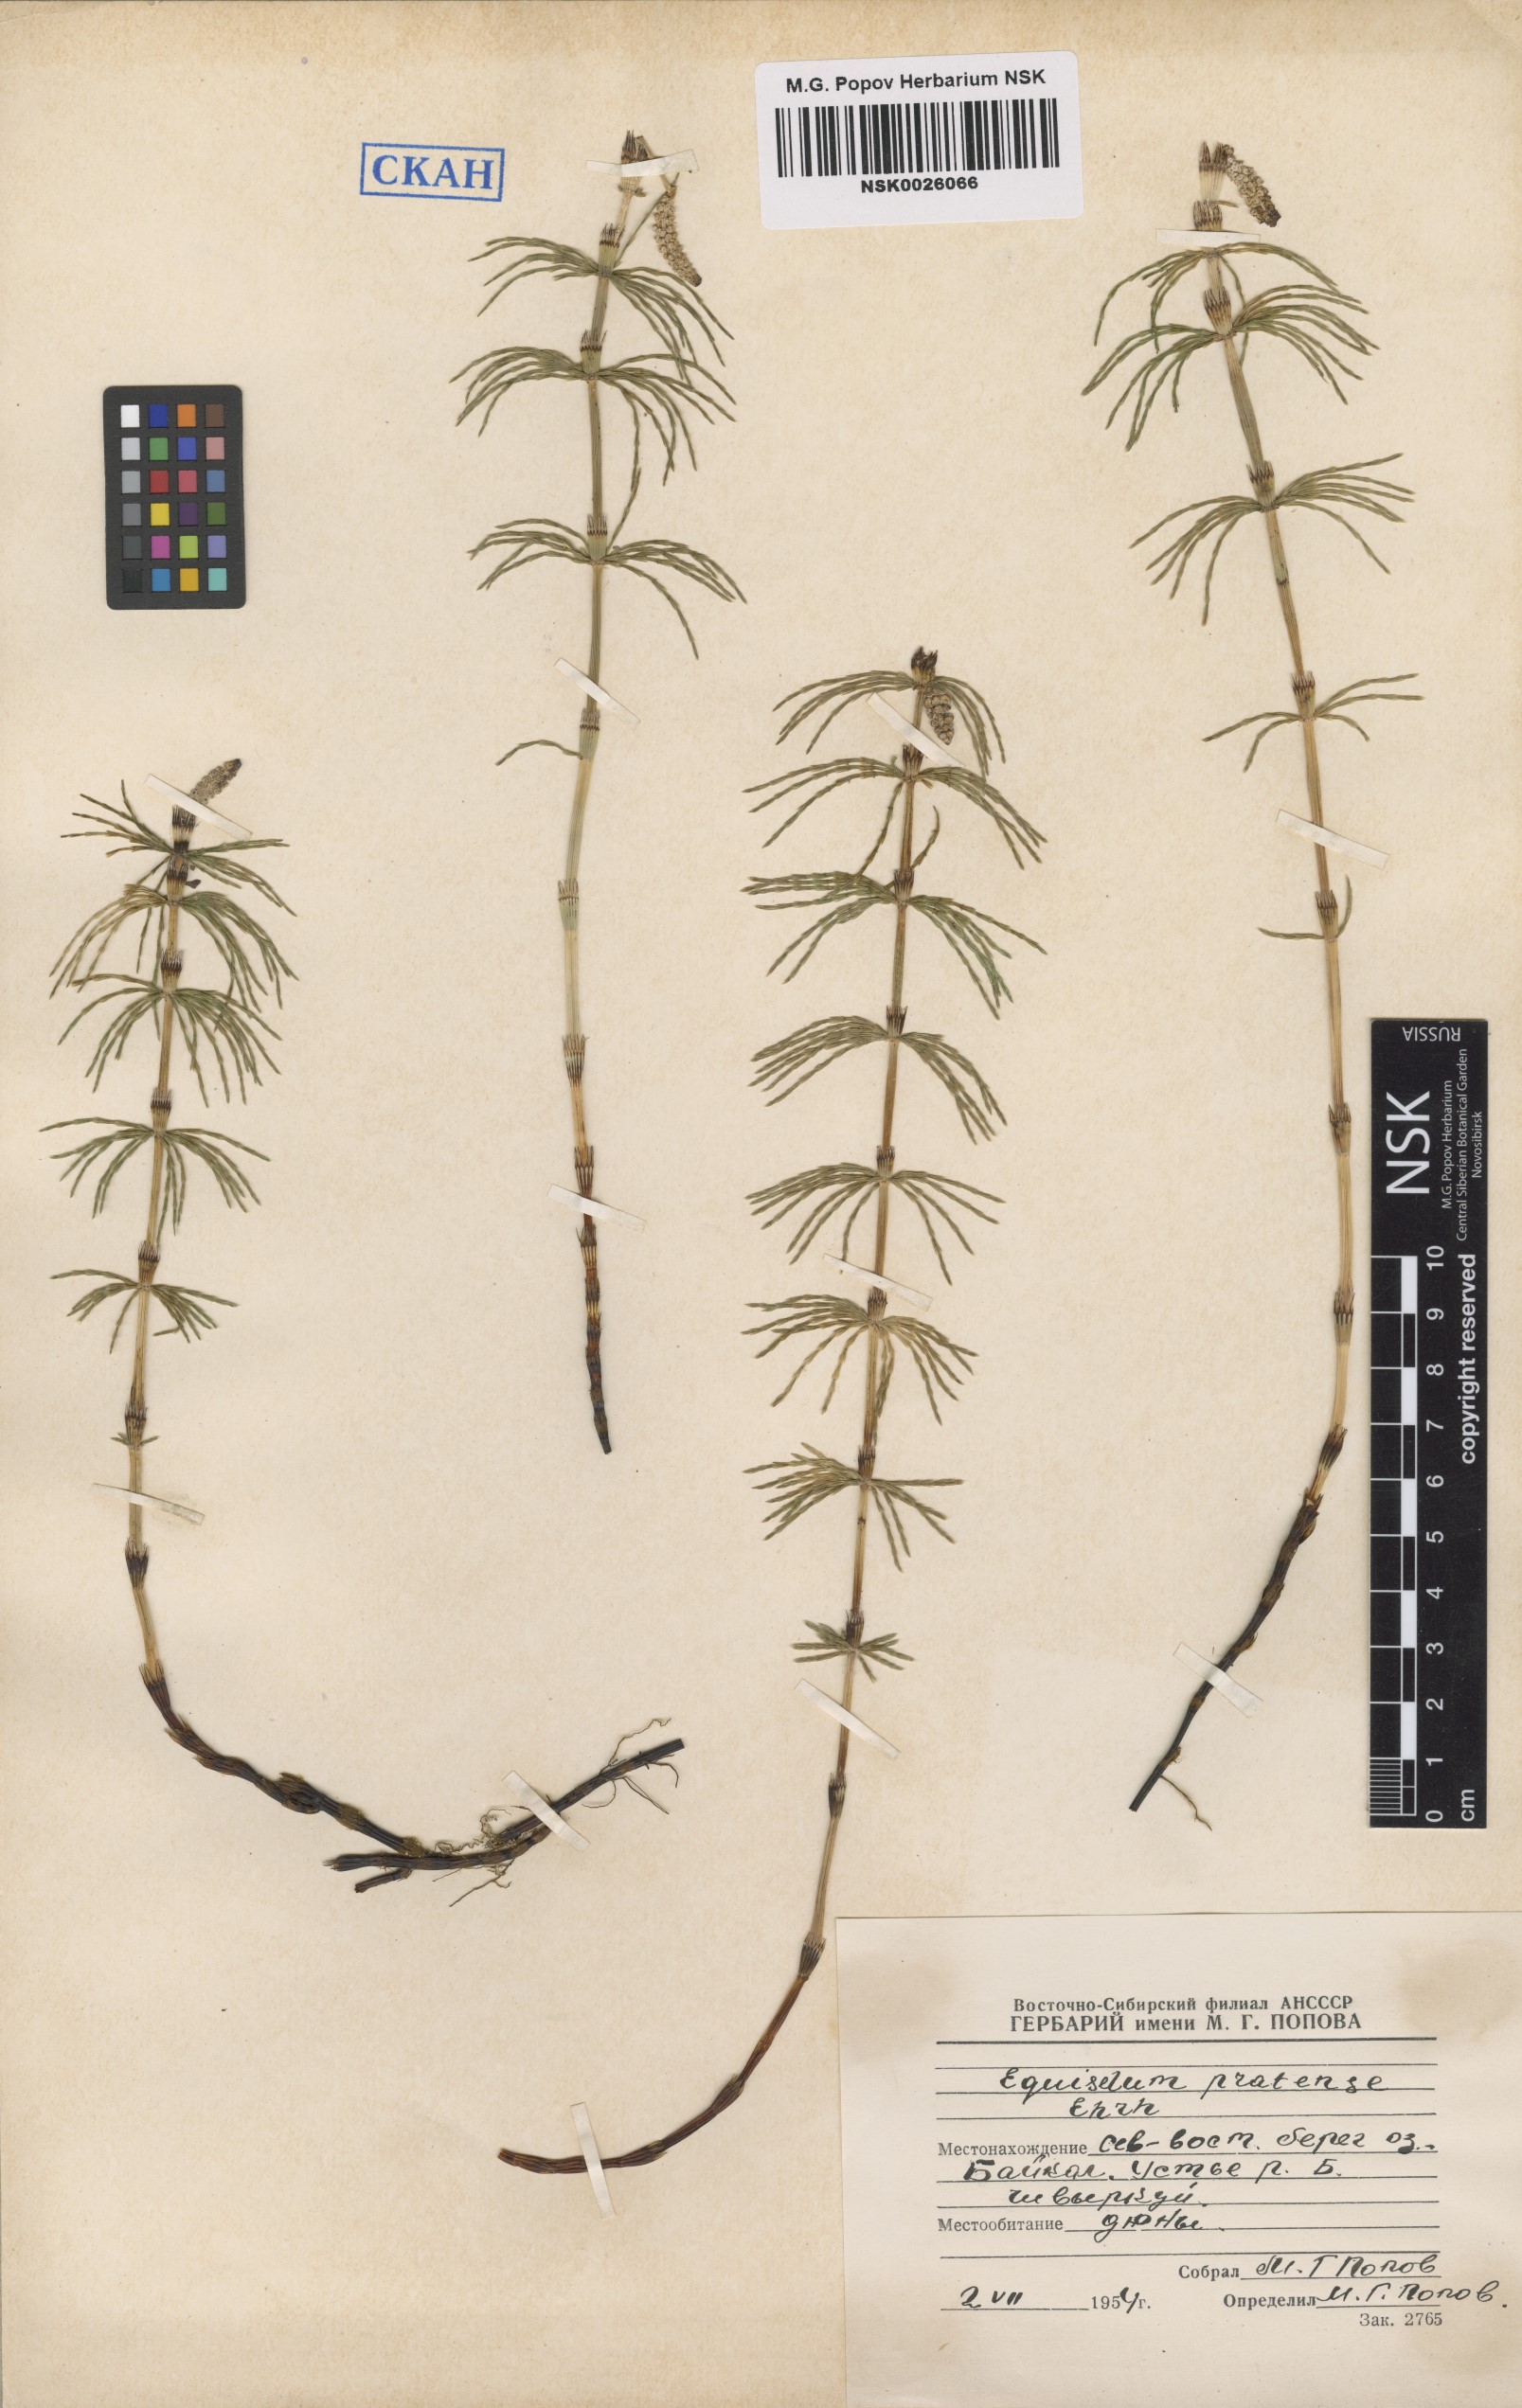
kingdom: Plantae
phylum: Tracheophyta
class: Polypodiopsida
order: Equisetales
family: Equisetaceae
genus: Equisetum
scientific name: Equisetum pratense
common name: Meadow horsetail
